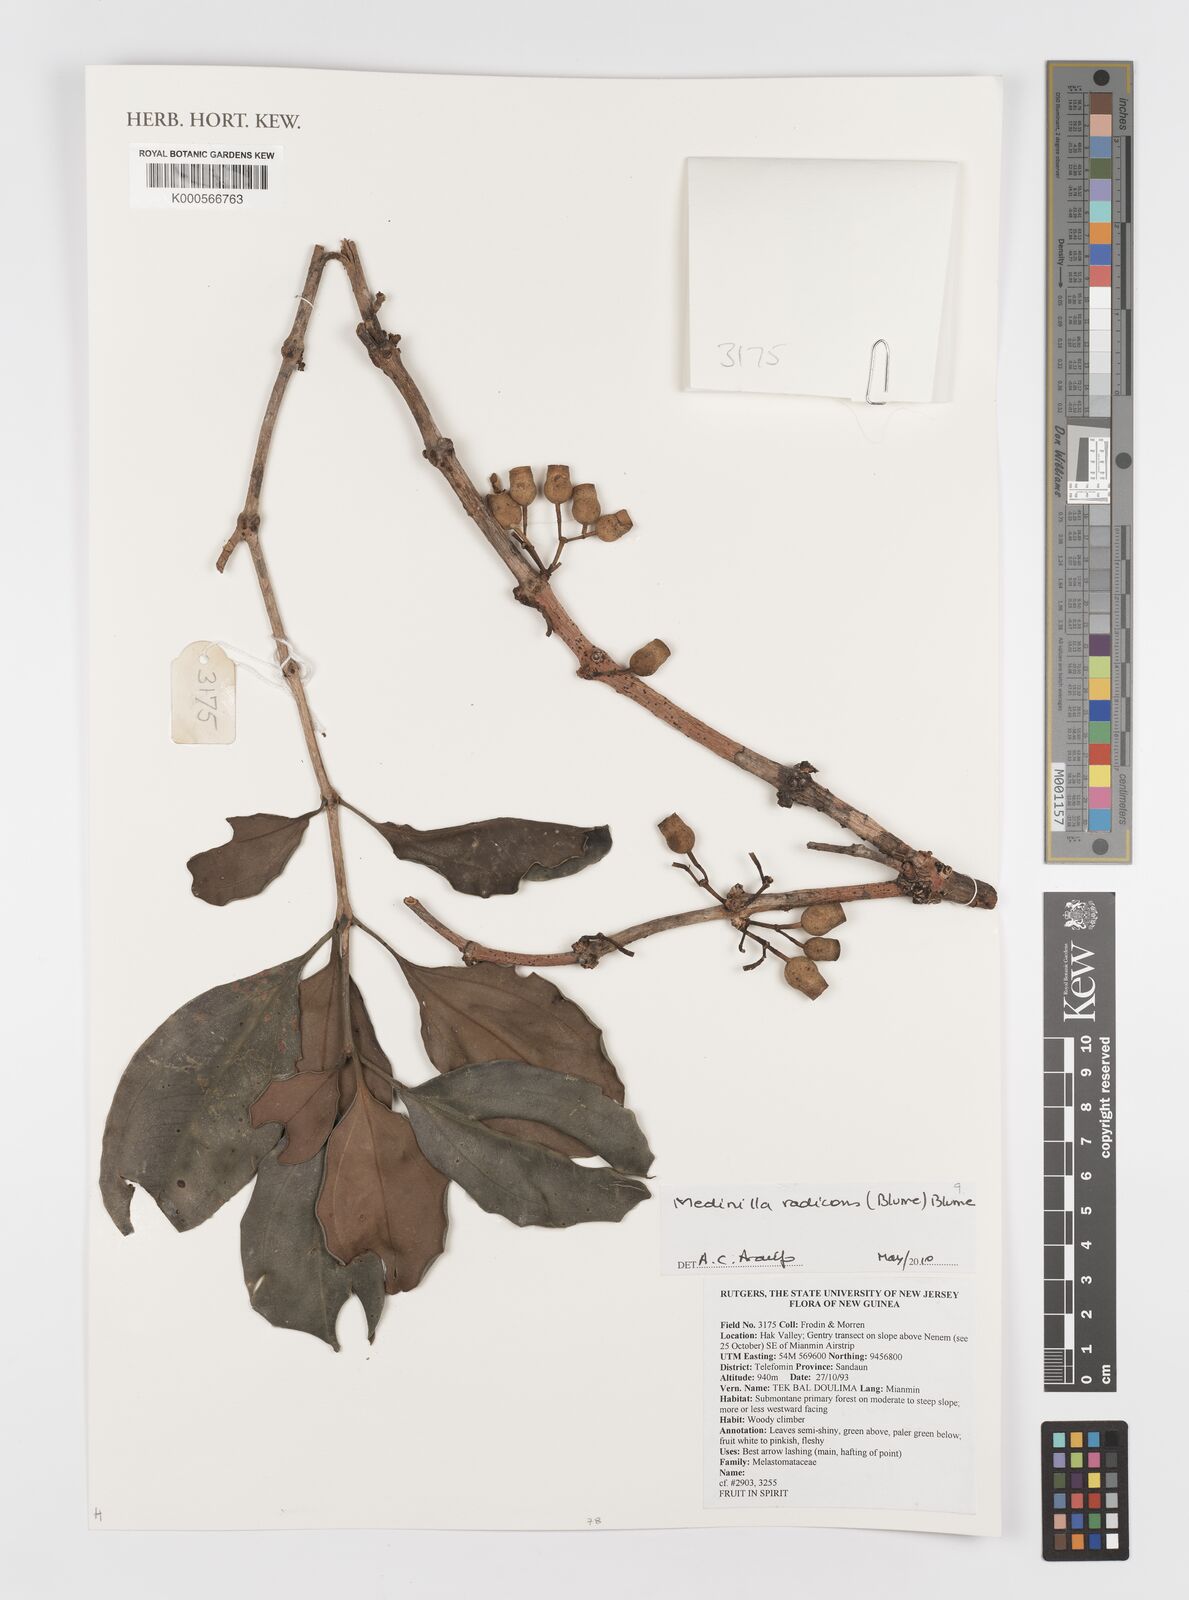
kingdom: Plantae
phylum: Tracheophyta
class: Magnoliopsida
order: Myrtales
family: Melastomataceae
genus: Medinilla
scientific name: Medinilla radicans
